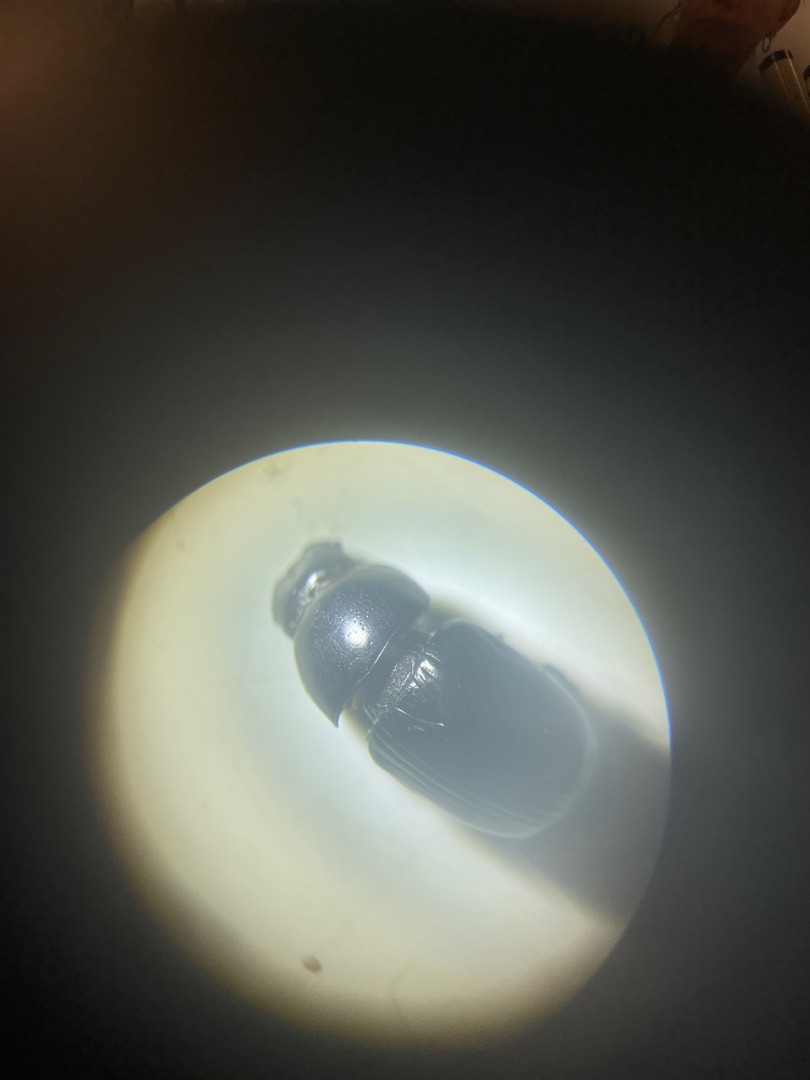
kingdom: Animalia
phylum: Arthropoda
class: Insecta
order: Coleoptera
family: Scarabaeidae
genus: Teuchestes
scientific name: Teuchestes fossor
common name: Stor møgbille
